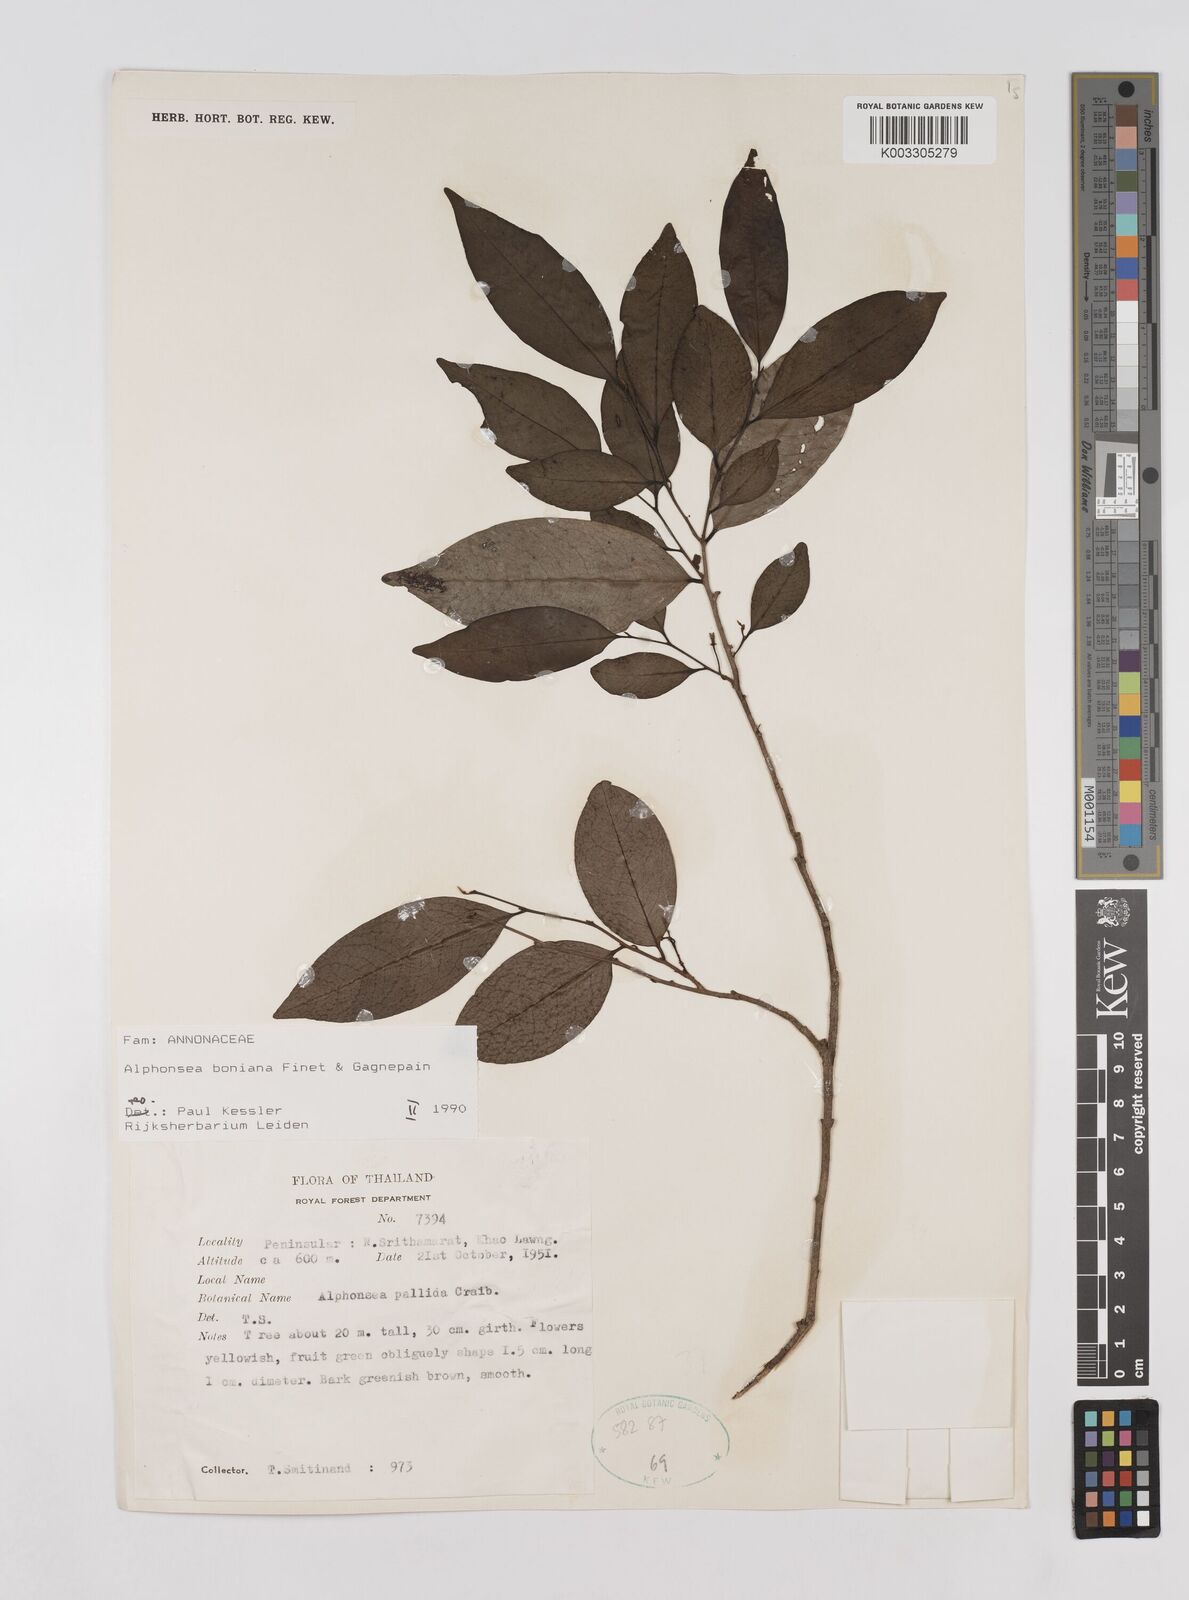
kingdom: Plantae
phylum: Tracheophyta
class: Magnoliopsida
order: Magnoliales
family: Annonaceae
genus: Alphonsea
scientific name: Alphonsea boniana
